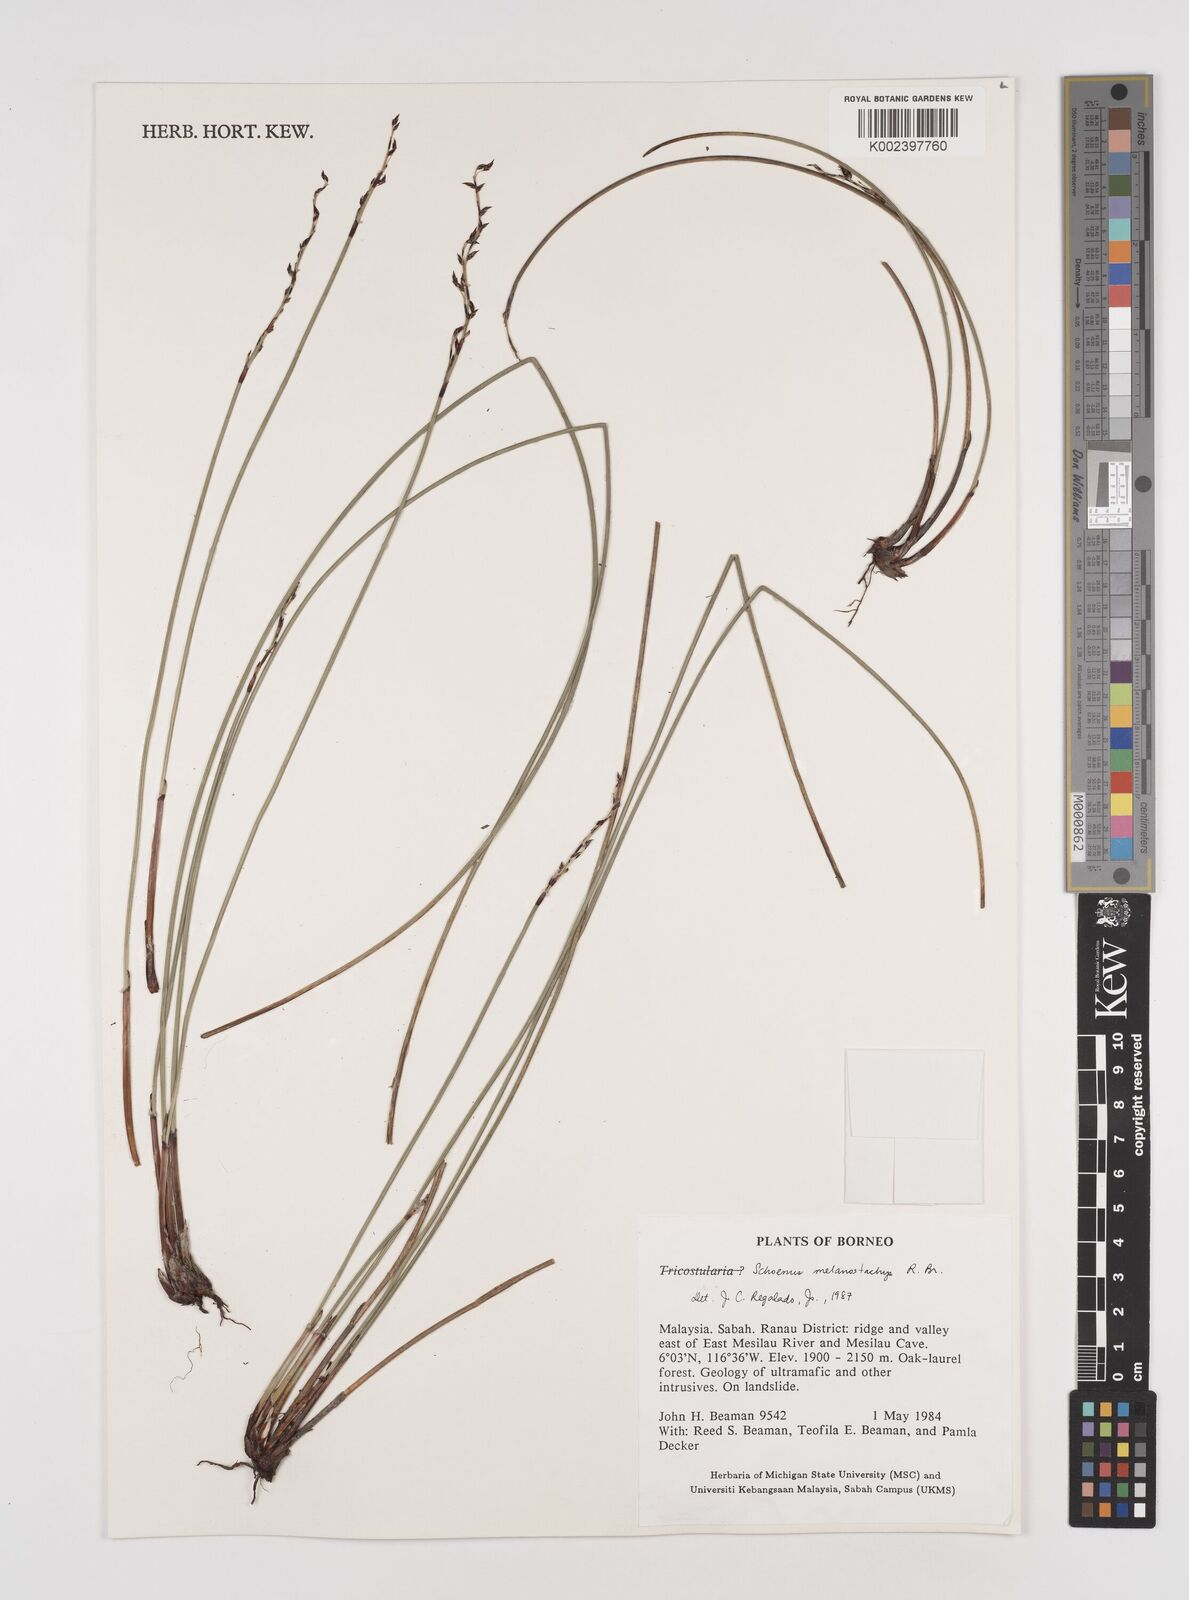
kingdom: Plantae
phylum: Tracheophyta
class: Liliopsida
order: Poales
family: Cyperaceae
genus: Schoenus
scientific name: Schoenus melanostachys
